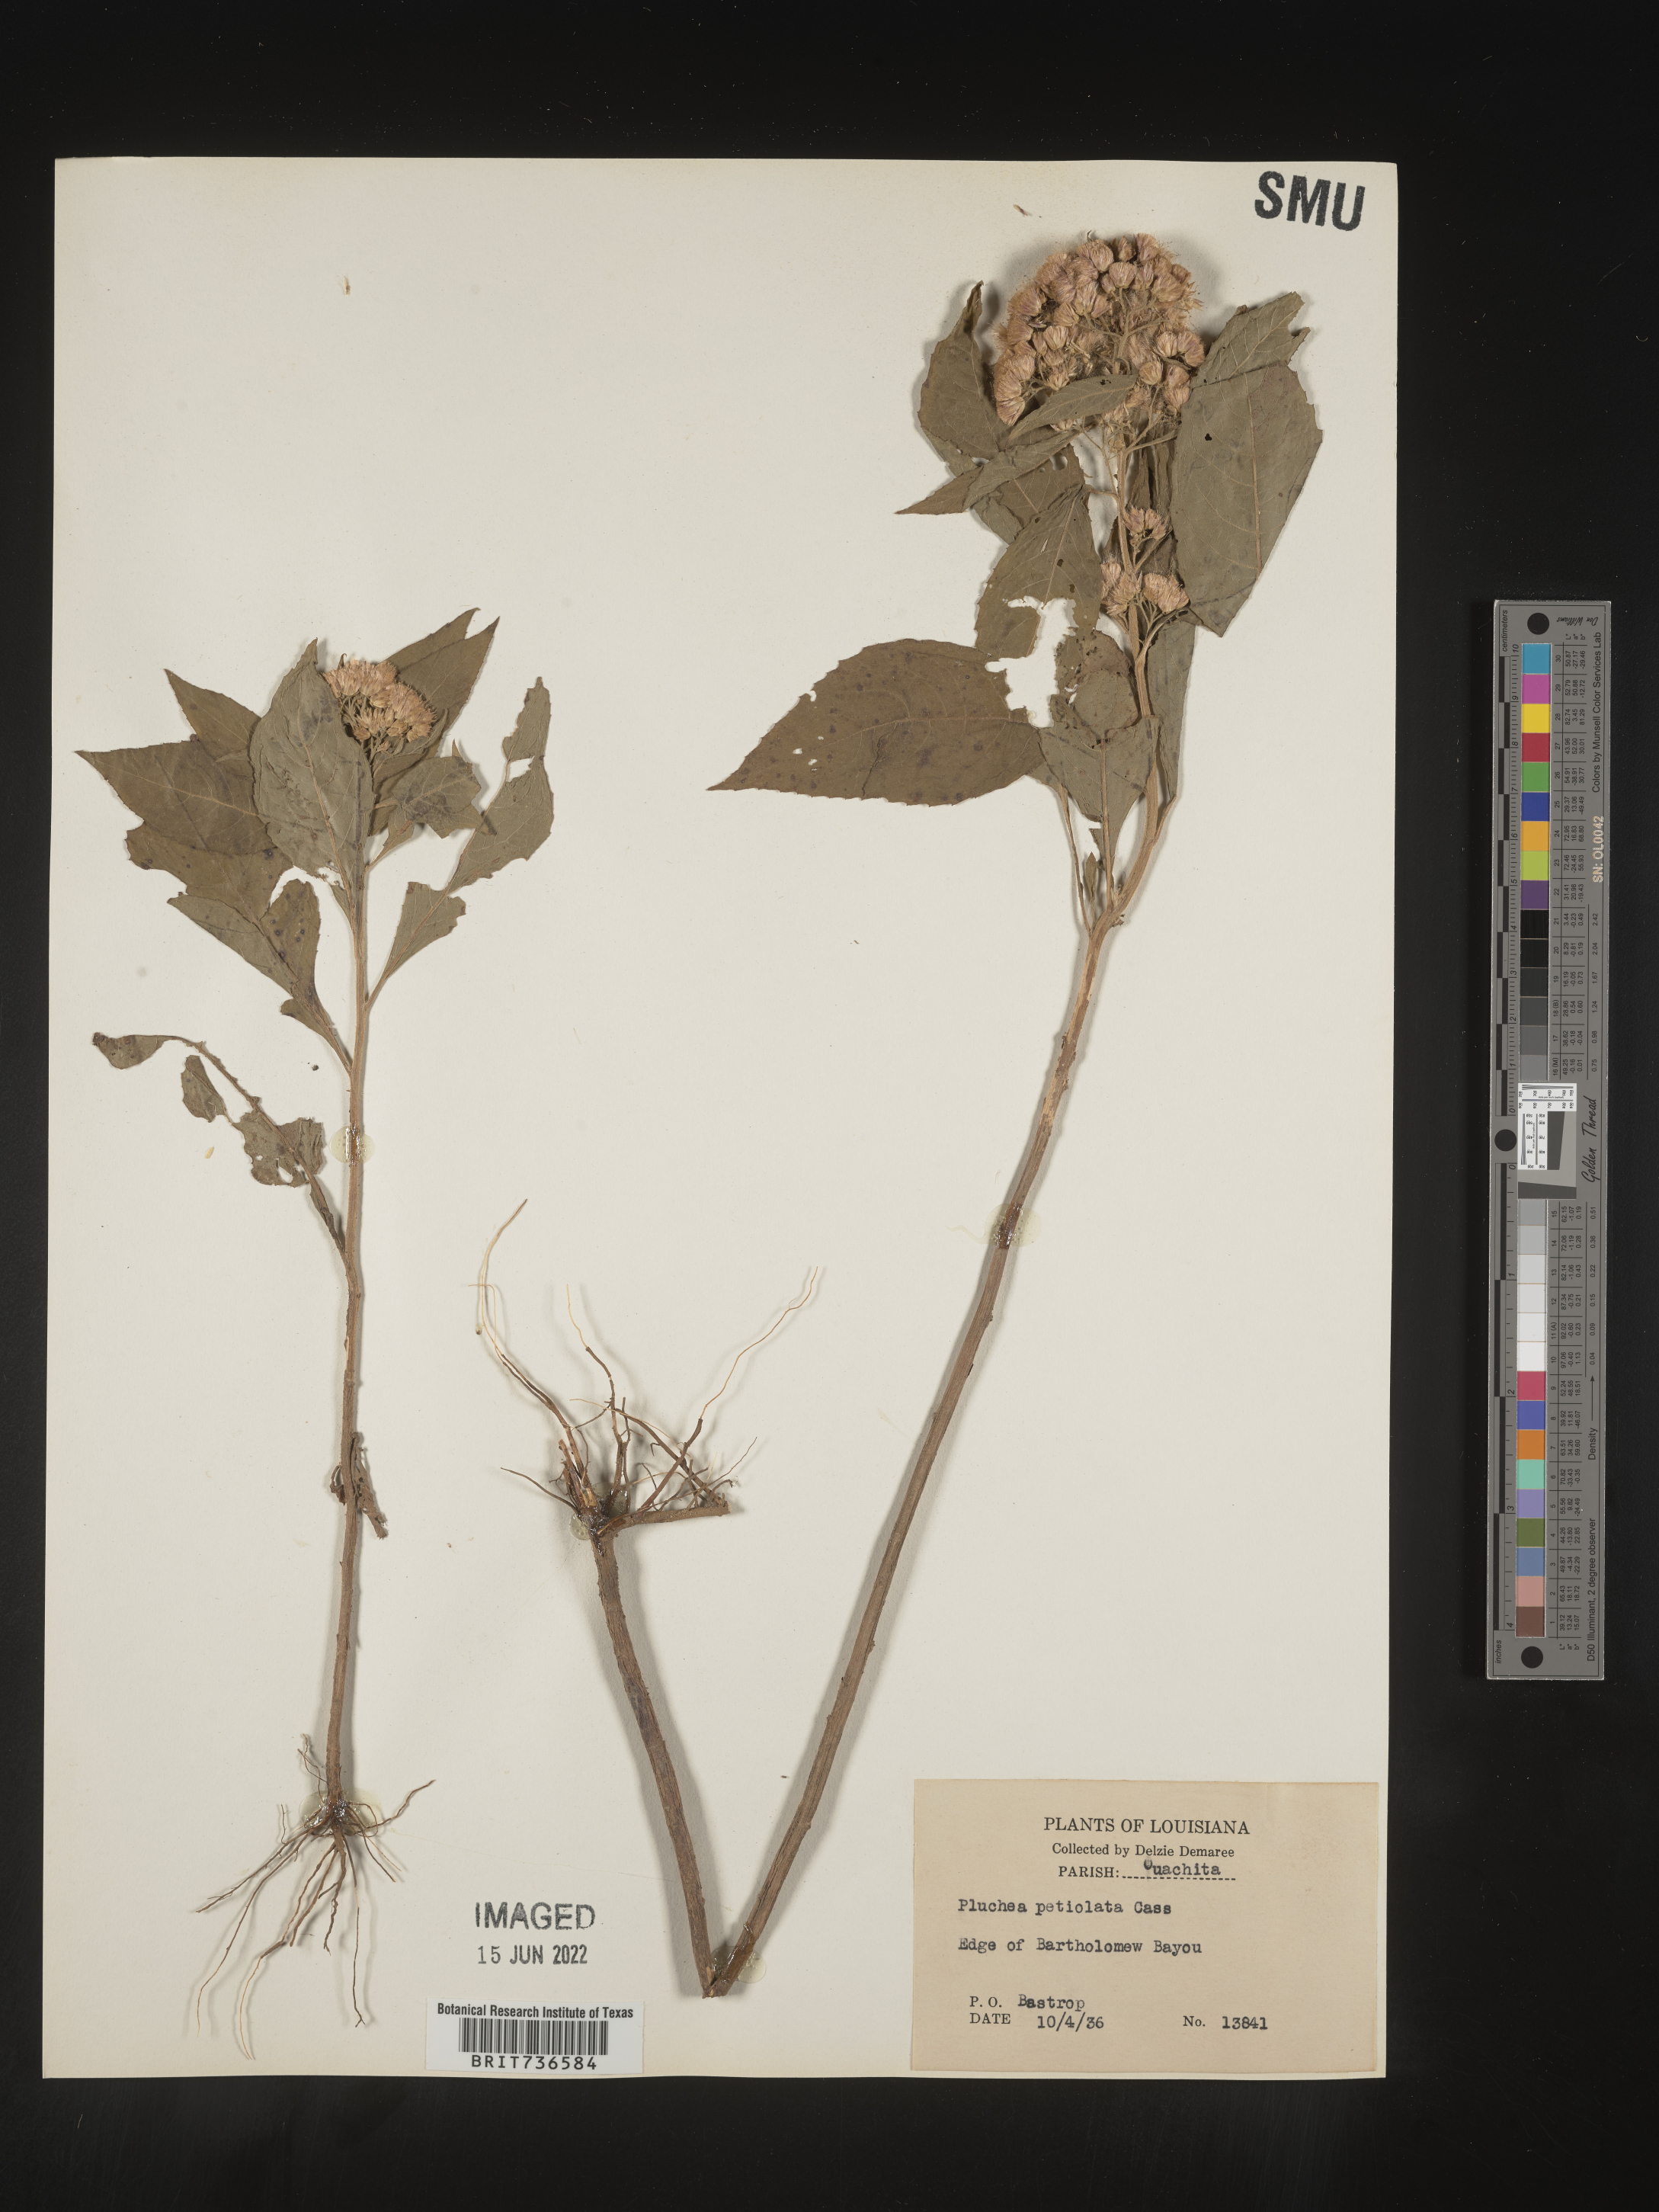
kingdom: Plantae
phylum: Tracheophyta
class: Magnoliopsida
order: Asterales
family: Asteraceae
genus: Pluchea
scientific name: Pluchea camphorata
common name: Camphor pluchea
